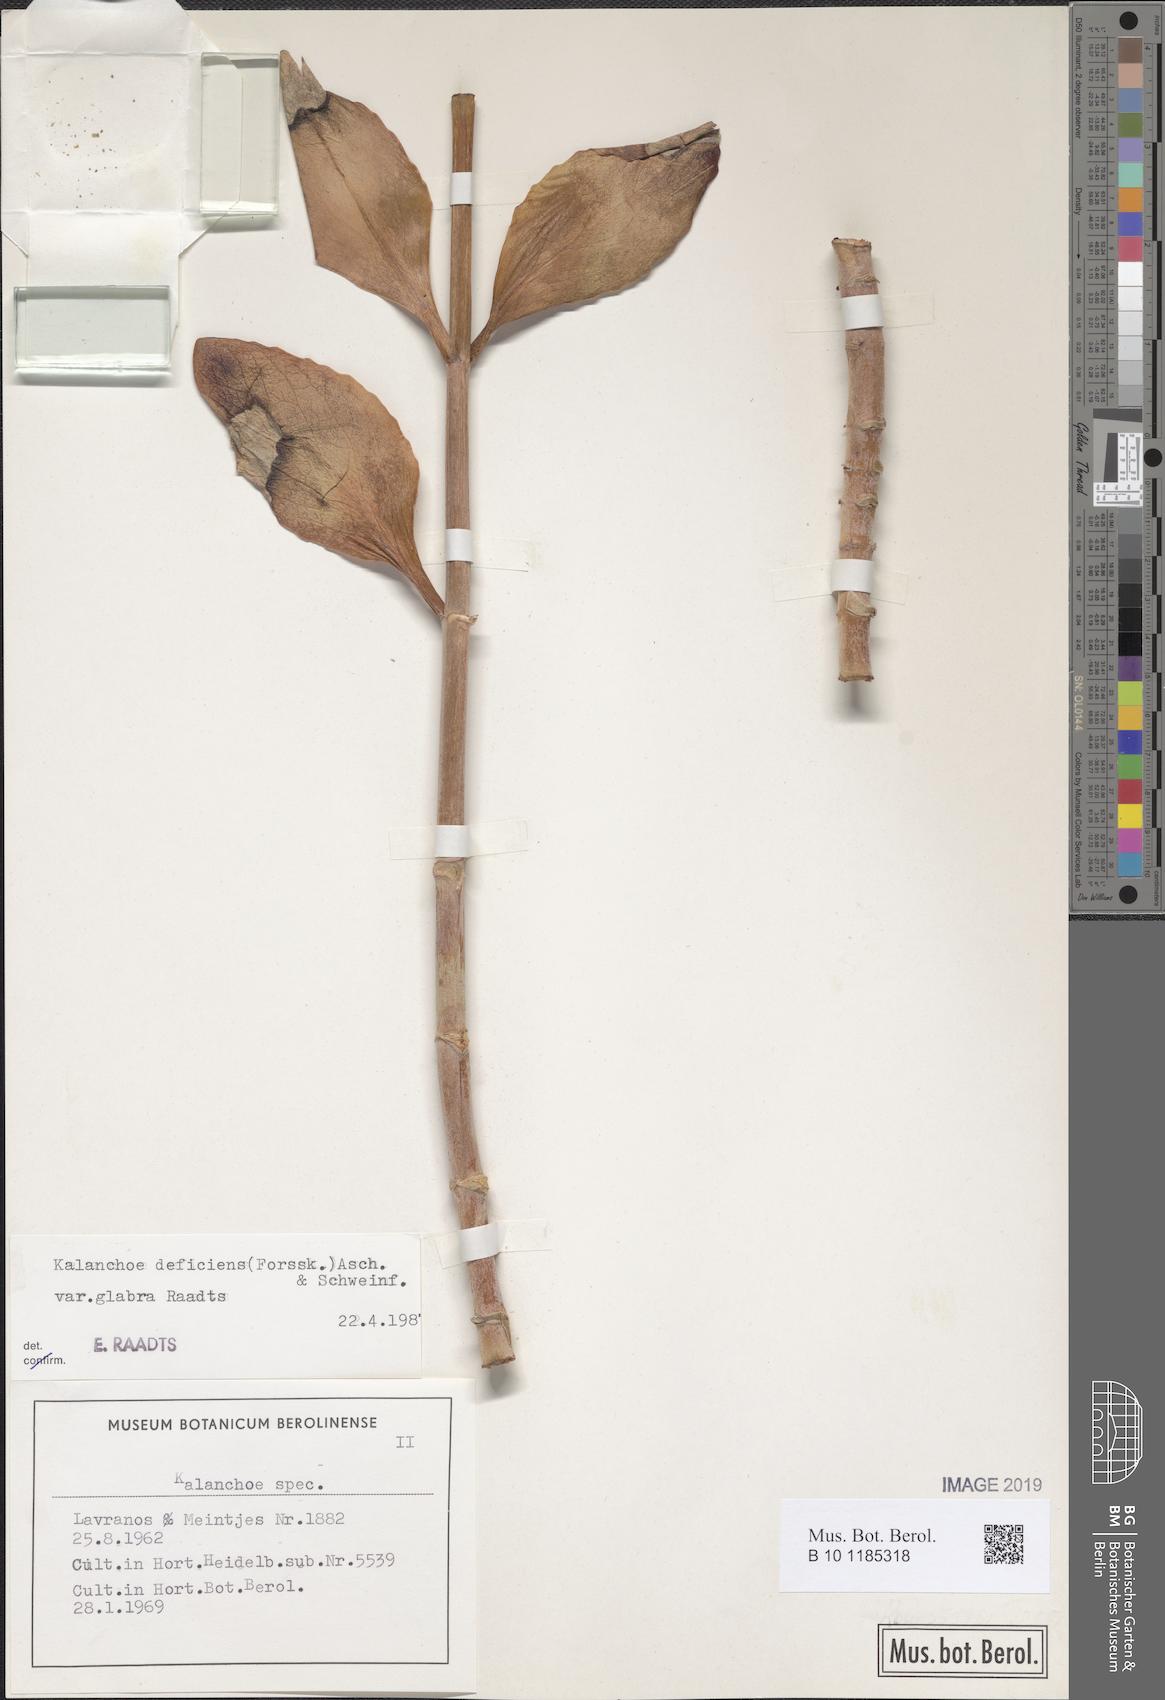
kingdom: Plantae
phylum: Tracheophyta
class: Magnoliopsida
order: Saxifragales
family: Crassulaceae
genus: Kalanchoe
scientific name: Kalanchoe deficiens
